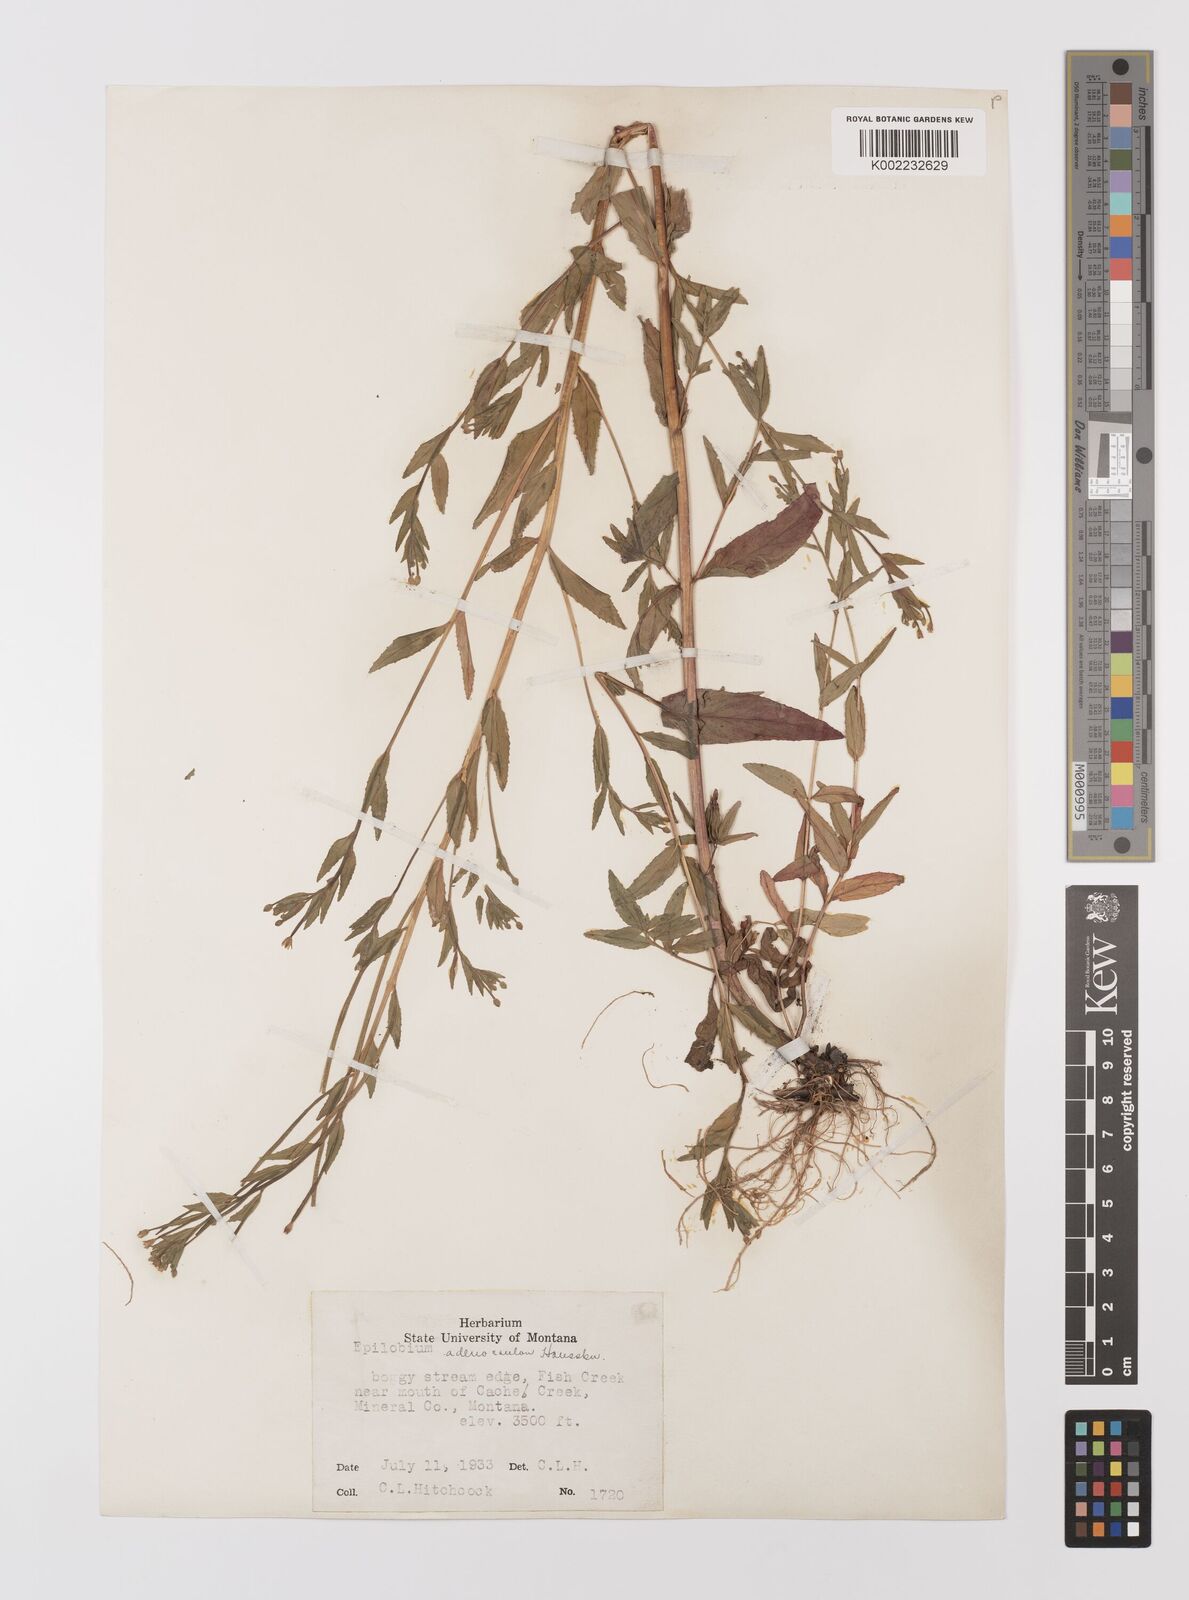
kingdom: Plantae
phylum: Tracheophyta
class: Magnoliopsida
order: Myrtales
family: Onagraceae
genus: Epilobium
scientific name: Epilobium ciliatum
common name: American willowherb
